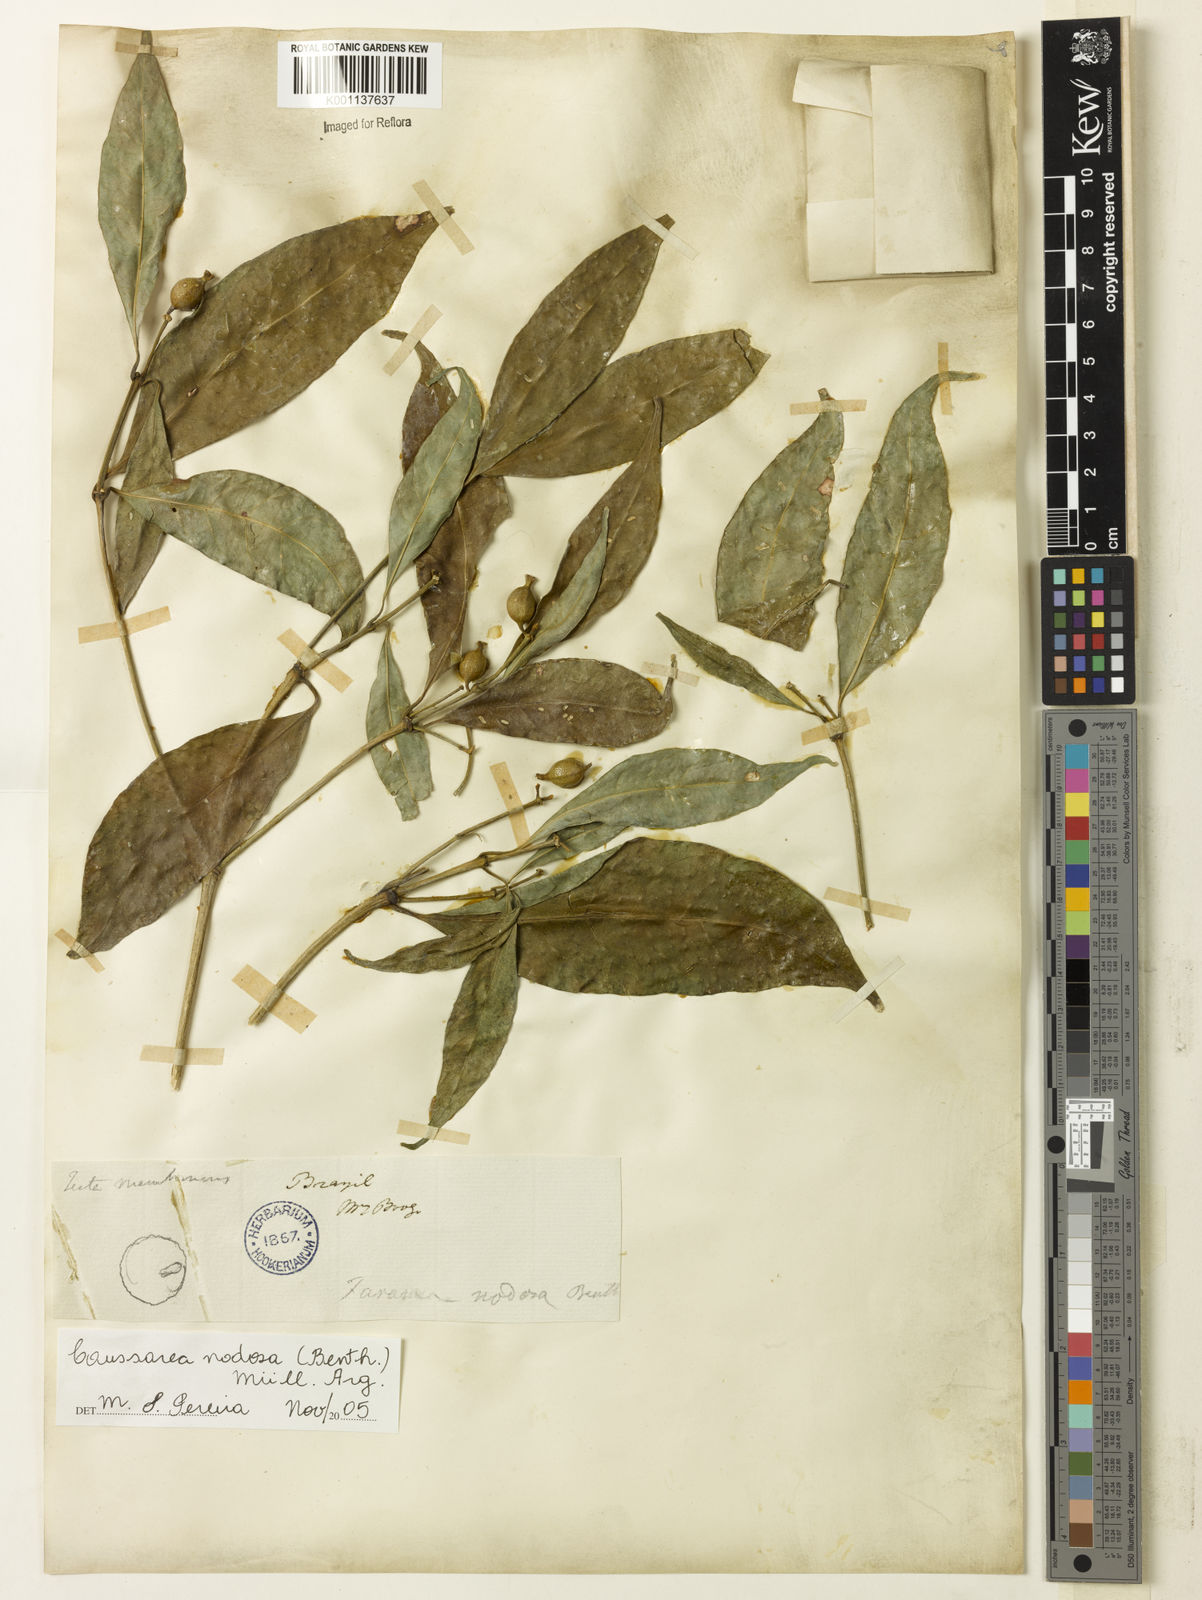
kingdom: Plantae
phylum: Tracheophyta
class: Magnoliopsida
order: Gentianales
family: Rubiaceae
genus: Coussarea
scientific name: Coussarea
